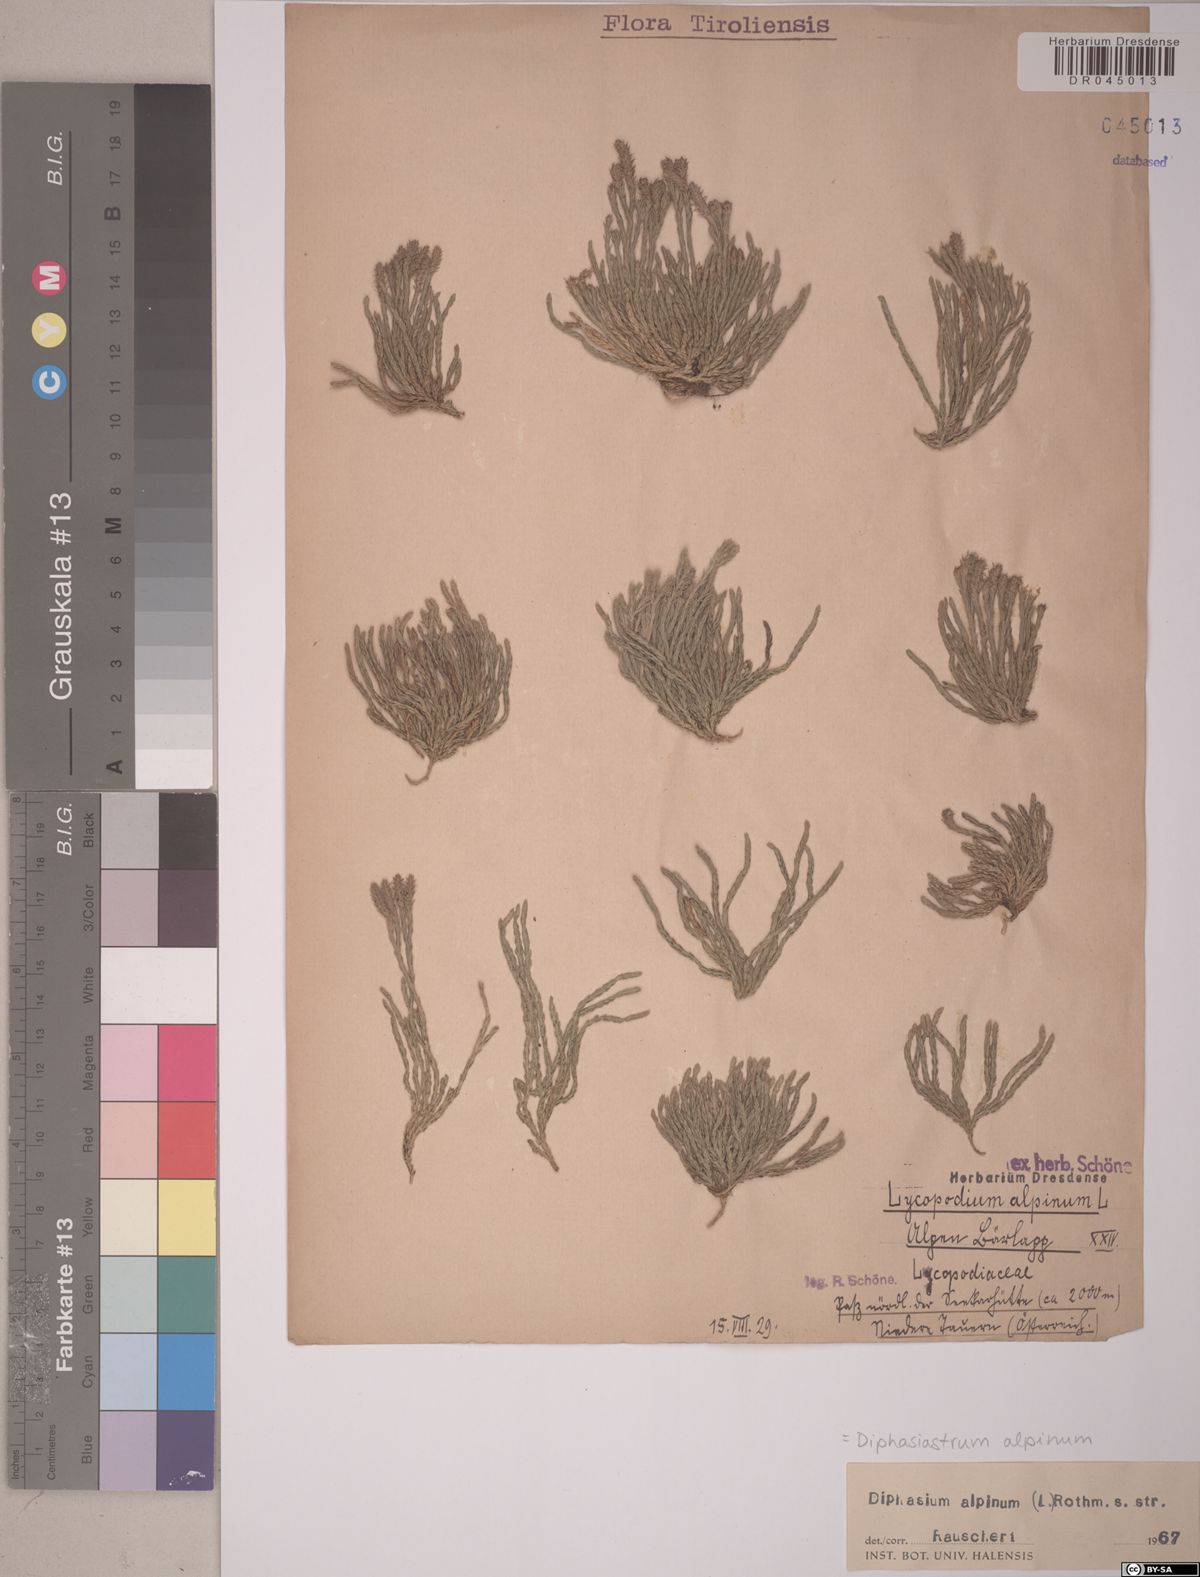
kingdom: Plantae
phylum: Tracheophyta
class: Lycopodiopsida
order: Lycopodiales
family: Lycopodiaceae
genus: Diphasiastrum
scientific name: Diphasiastrum alpinum
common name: Alpine clubmoss
